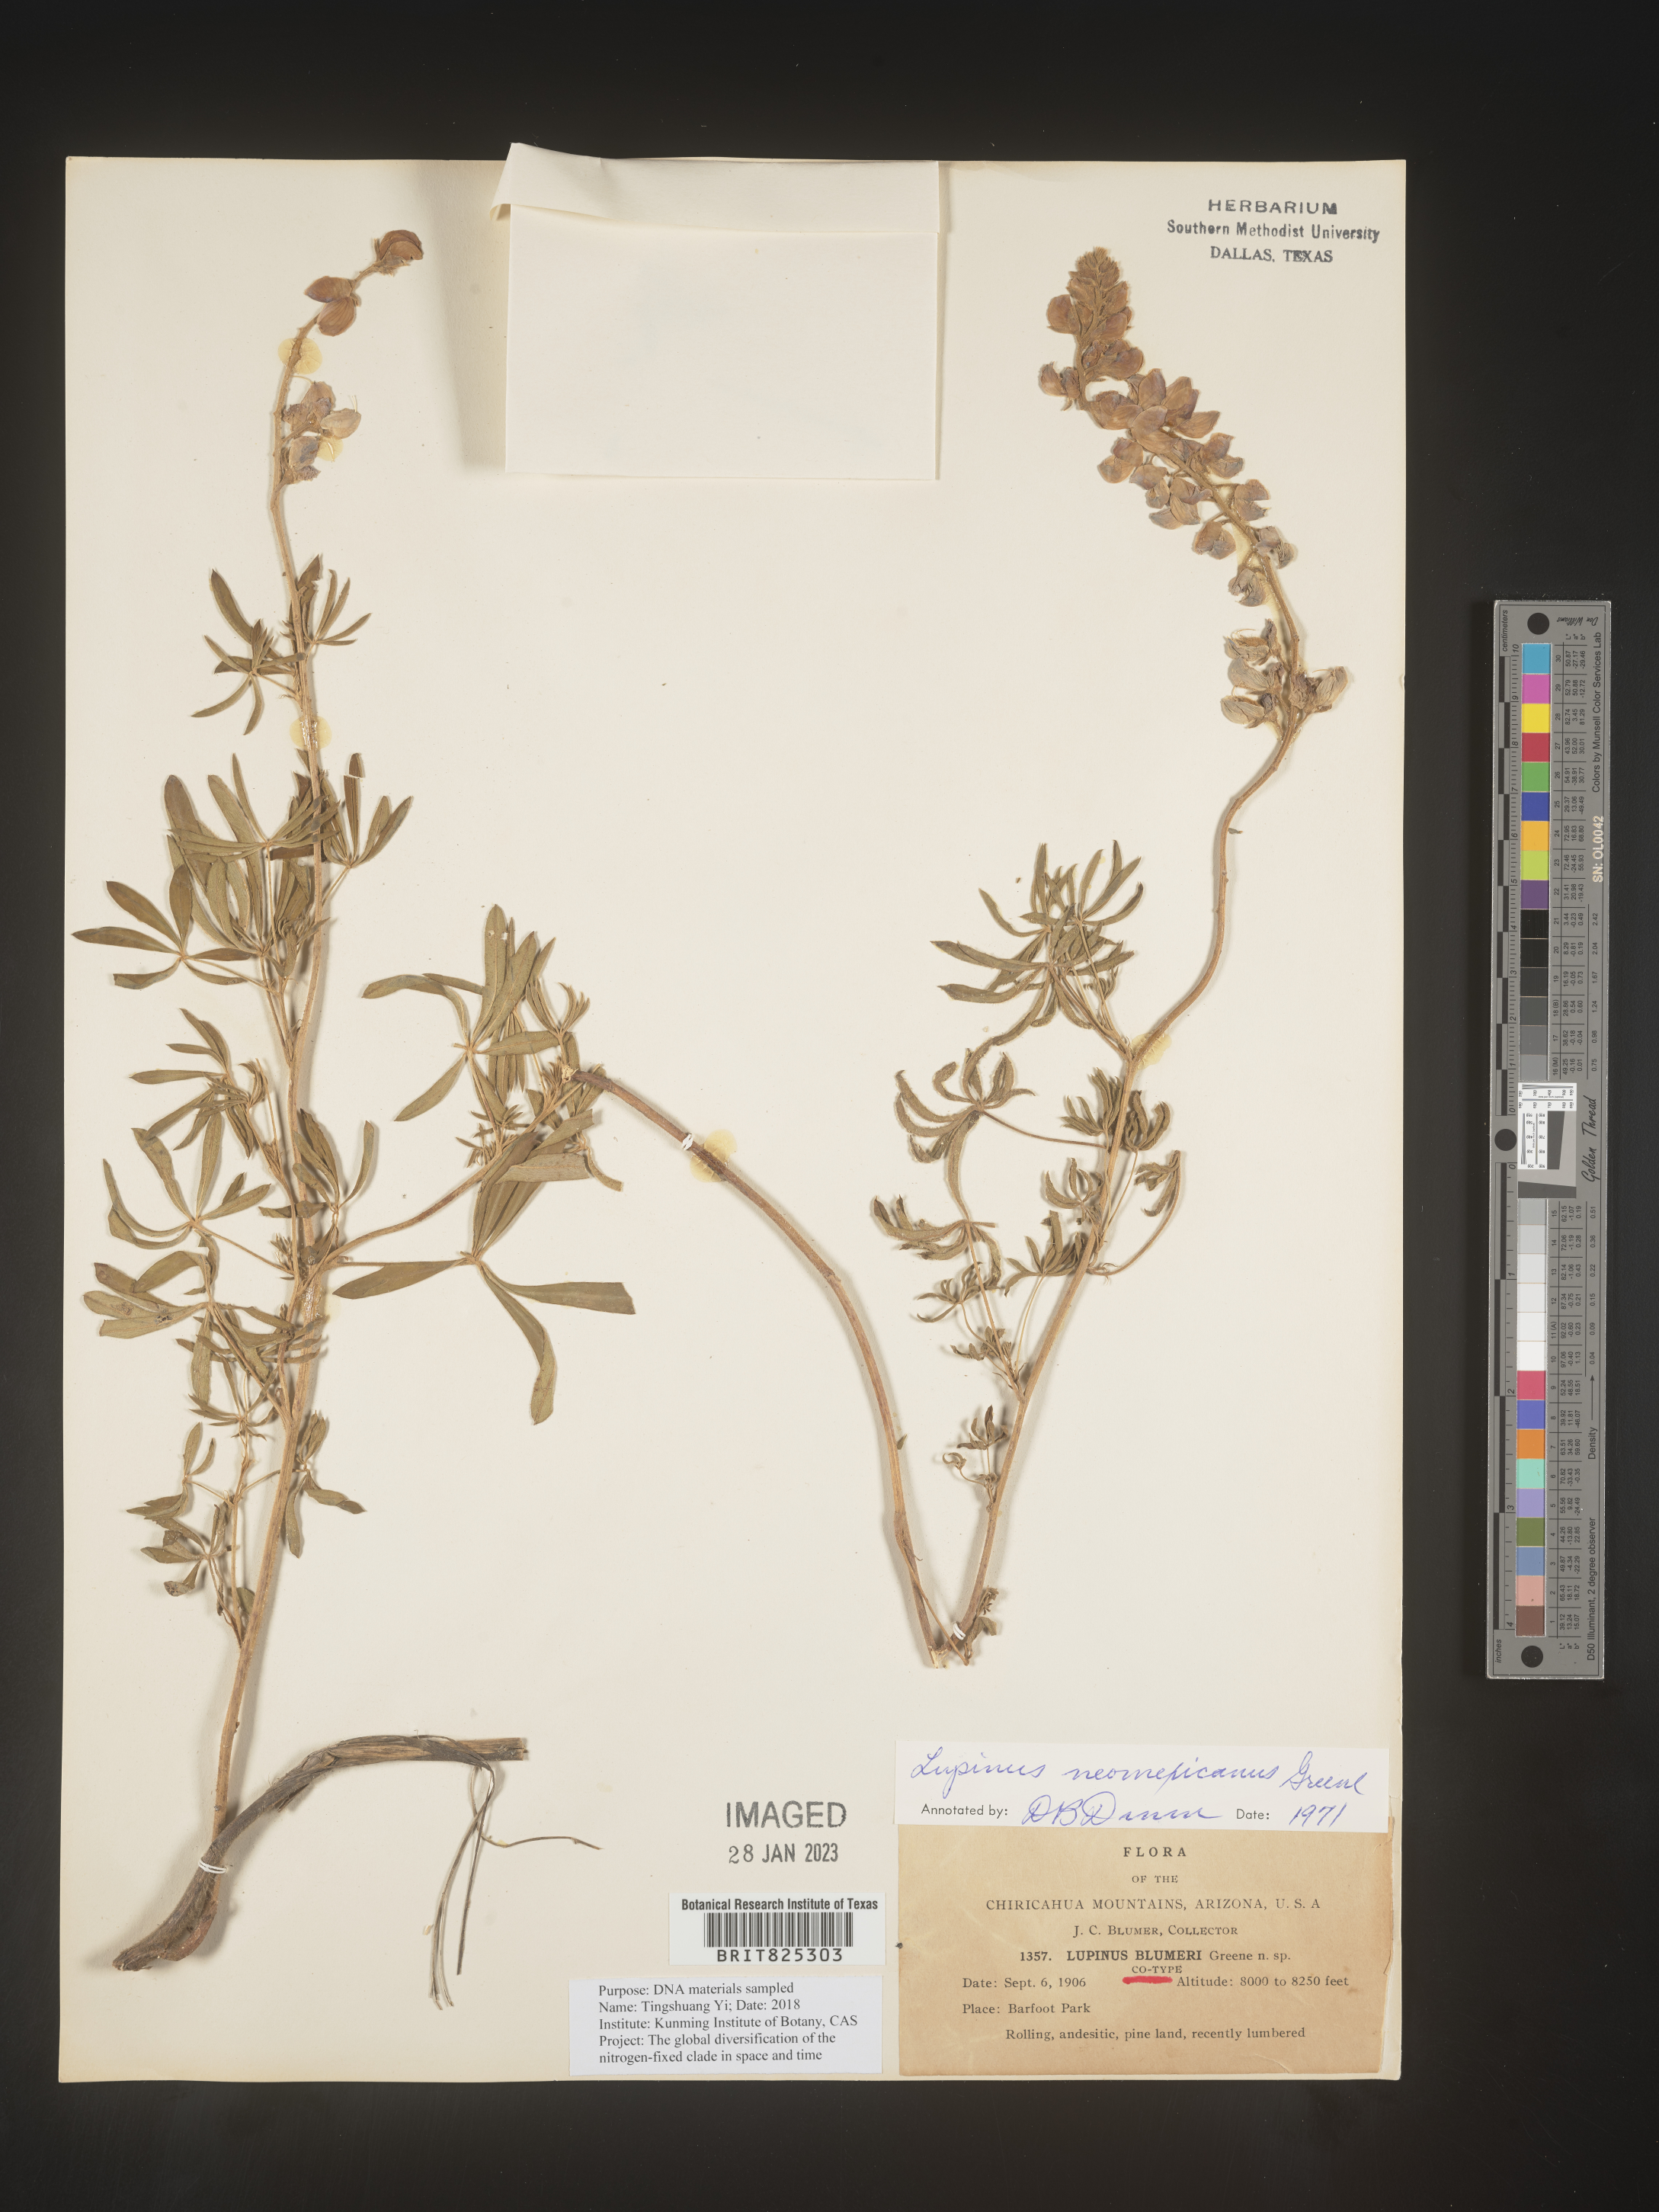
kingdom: Plantae
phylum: Tracheophyta
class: Magnoliopsida
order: Fabales
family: Fabaceae
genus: Lupinus
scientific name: Lupinus
